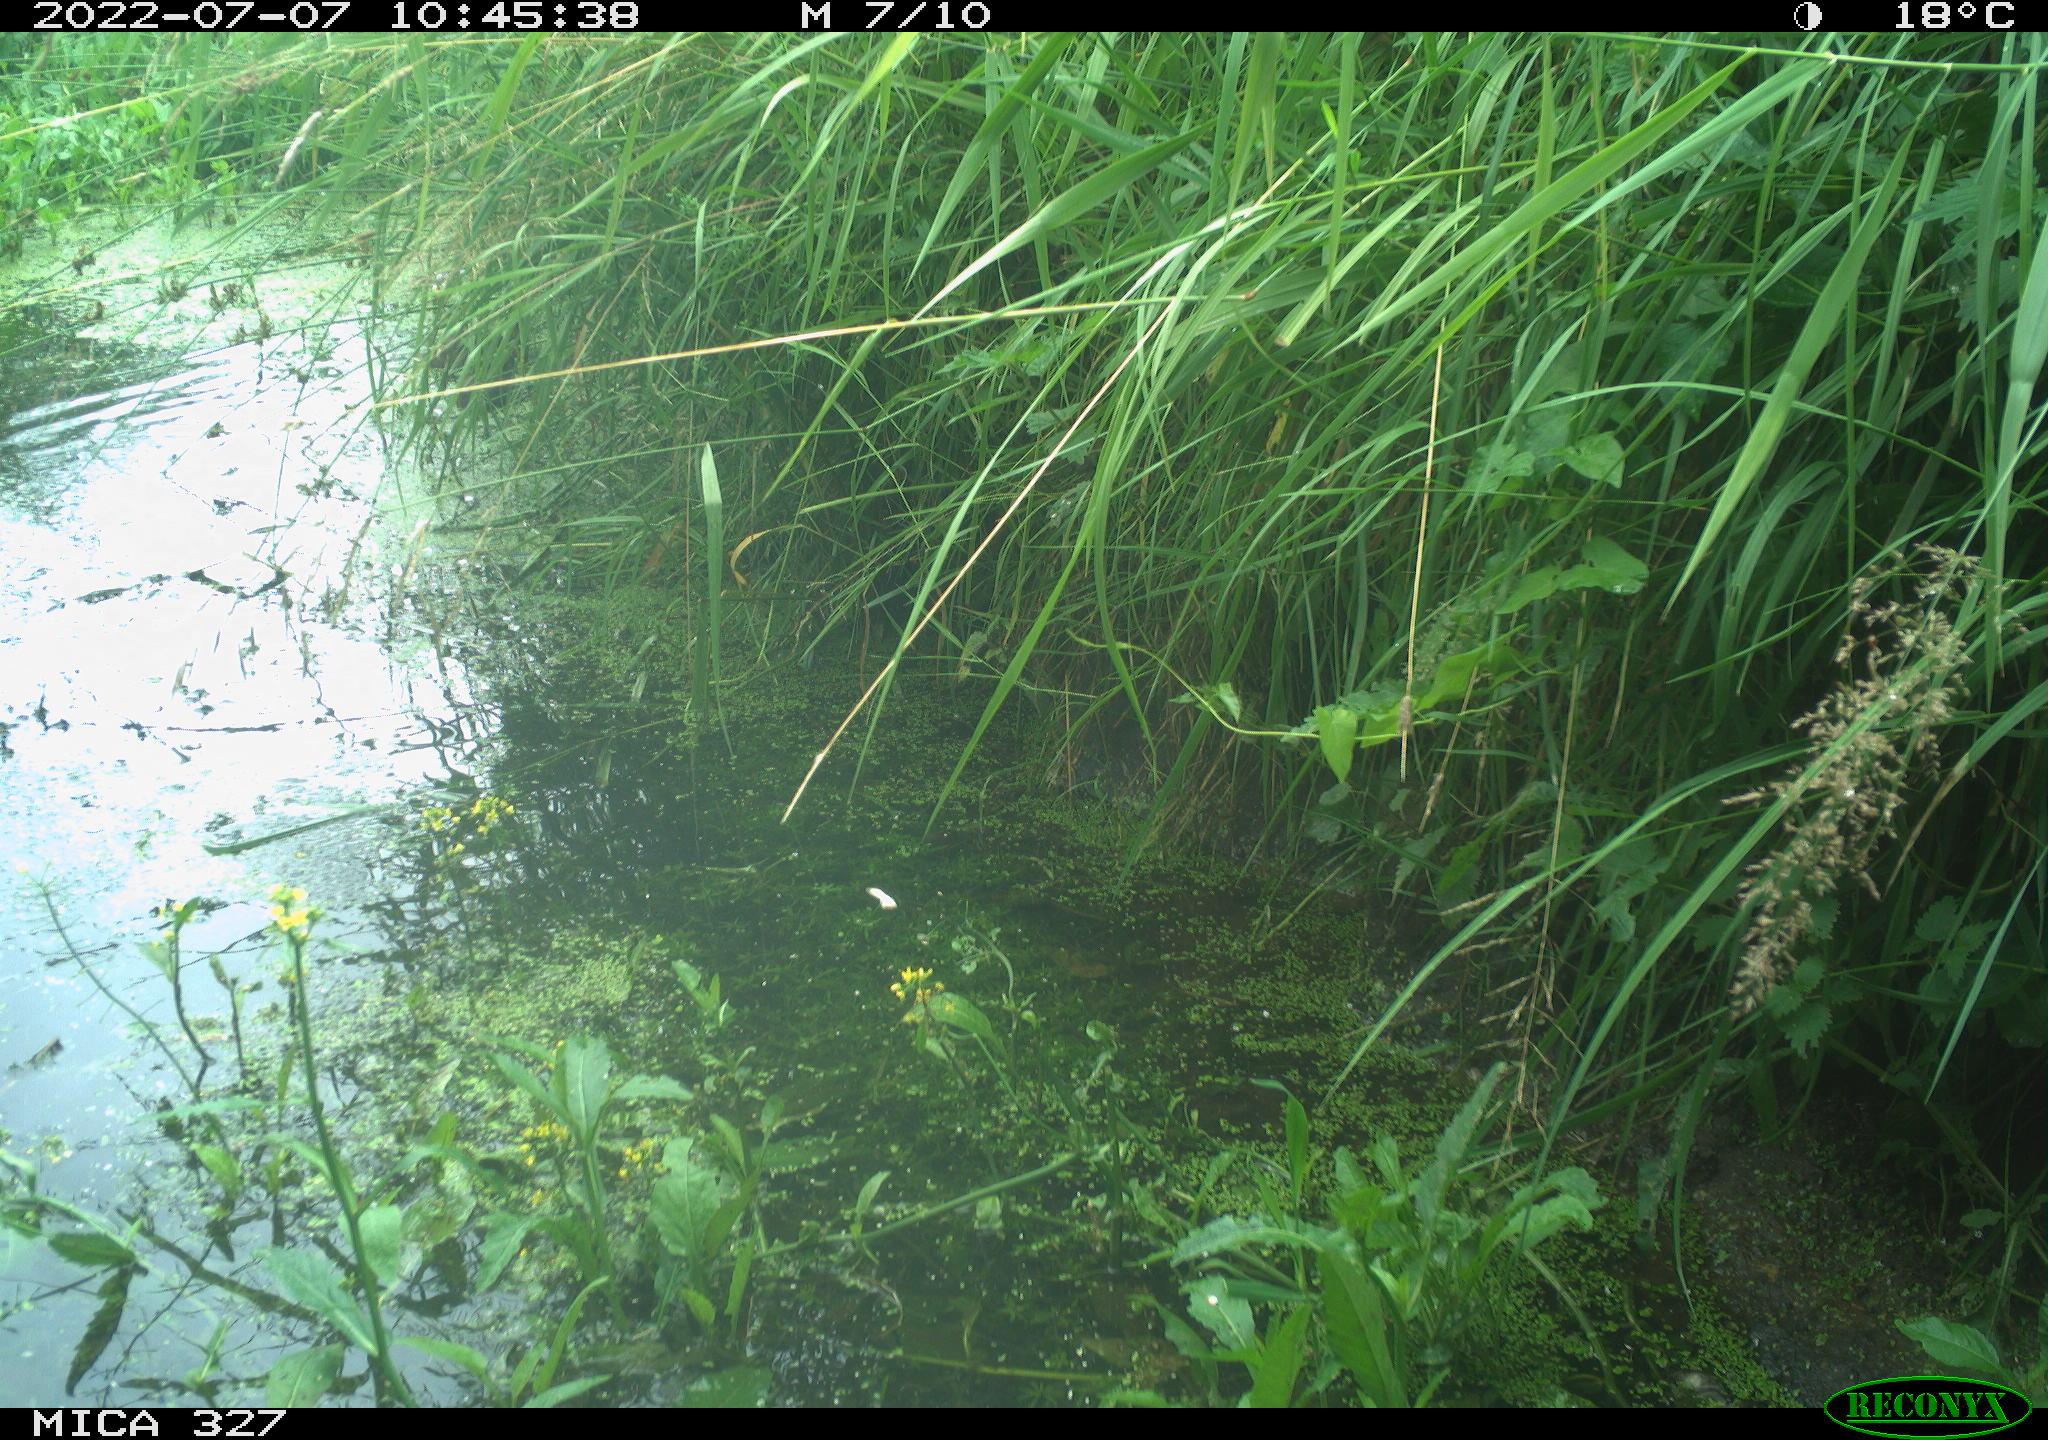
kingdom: Animalia
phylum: Chordata
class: Aves
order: Gruiformes
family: Rallidae
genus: Gallinula
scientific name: Gallinula chloropus
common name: Common moorhen
